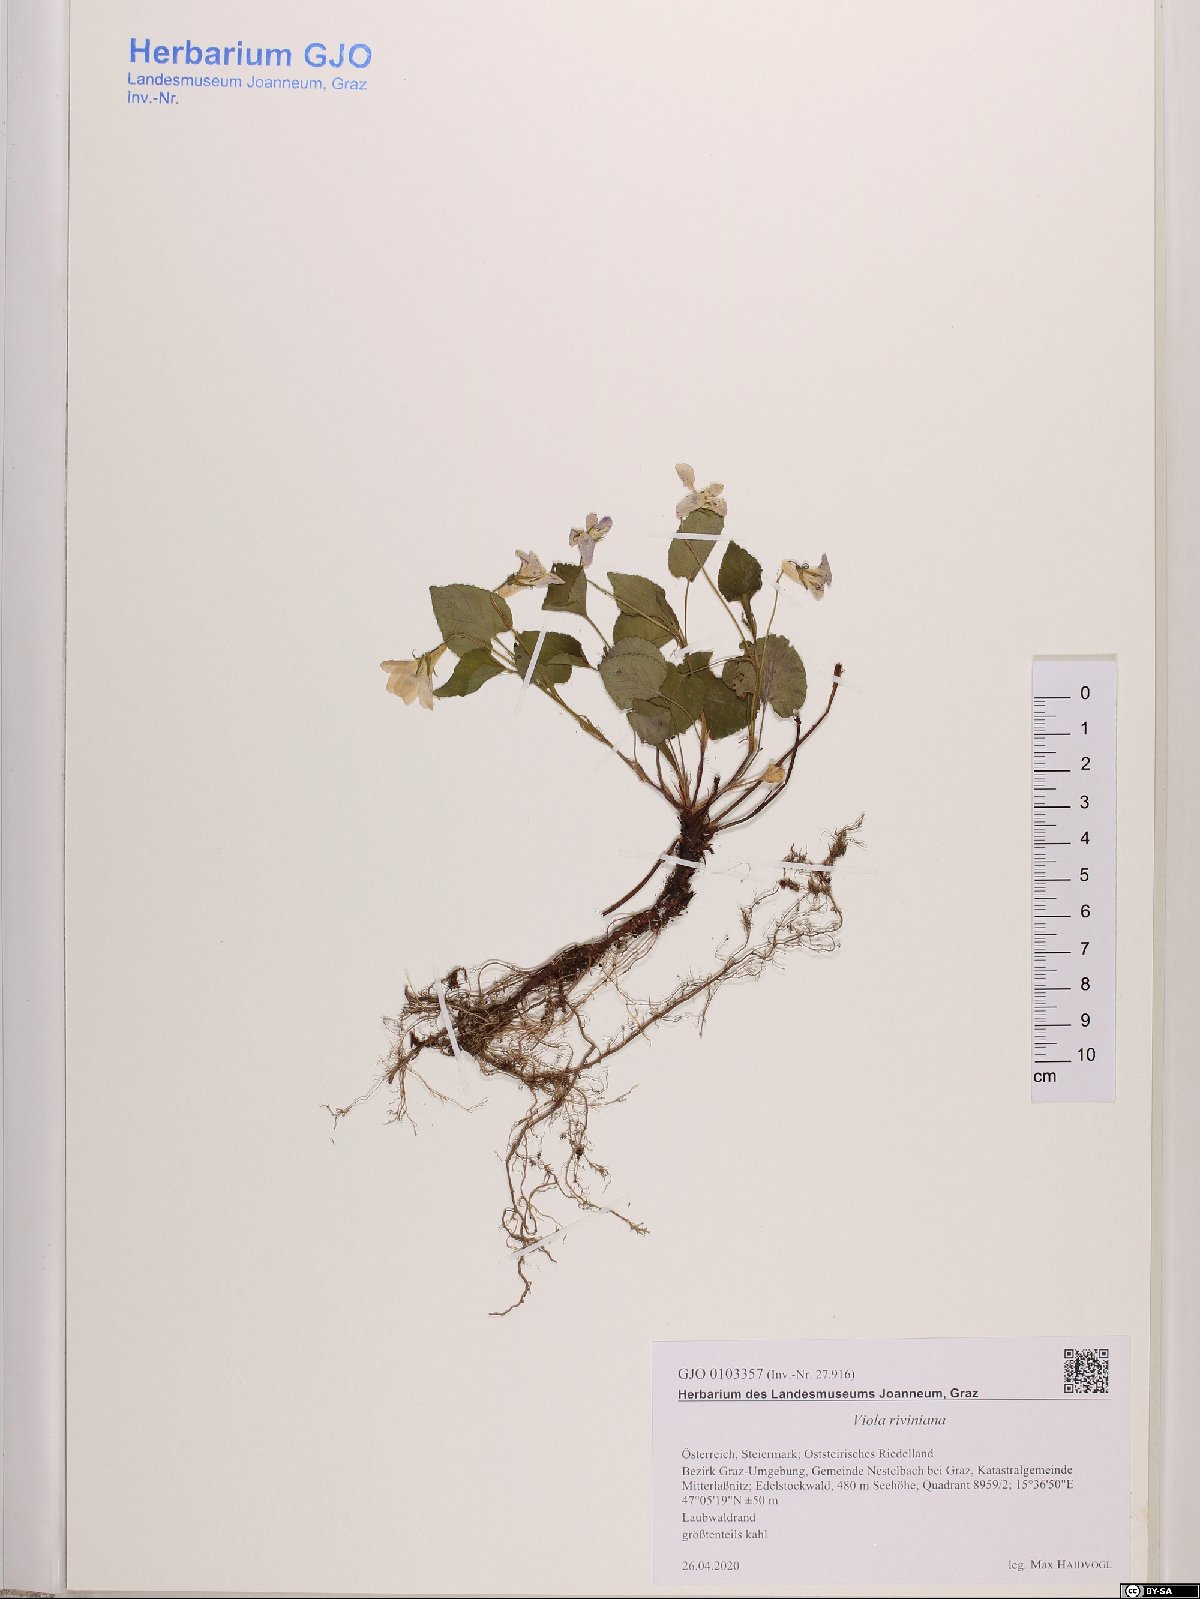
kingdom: Plantae
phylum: Tracheophyta
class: Magnoliopsida
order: Malpighiales
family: Violaceae
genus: Viola
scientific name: Viola riviniana
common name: Common dog-violet
